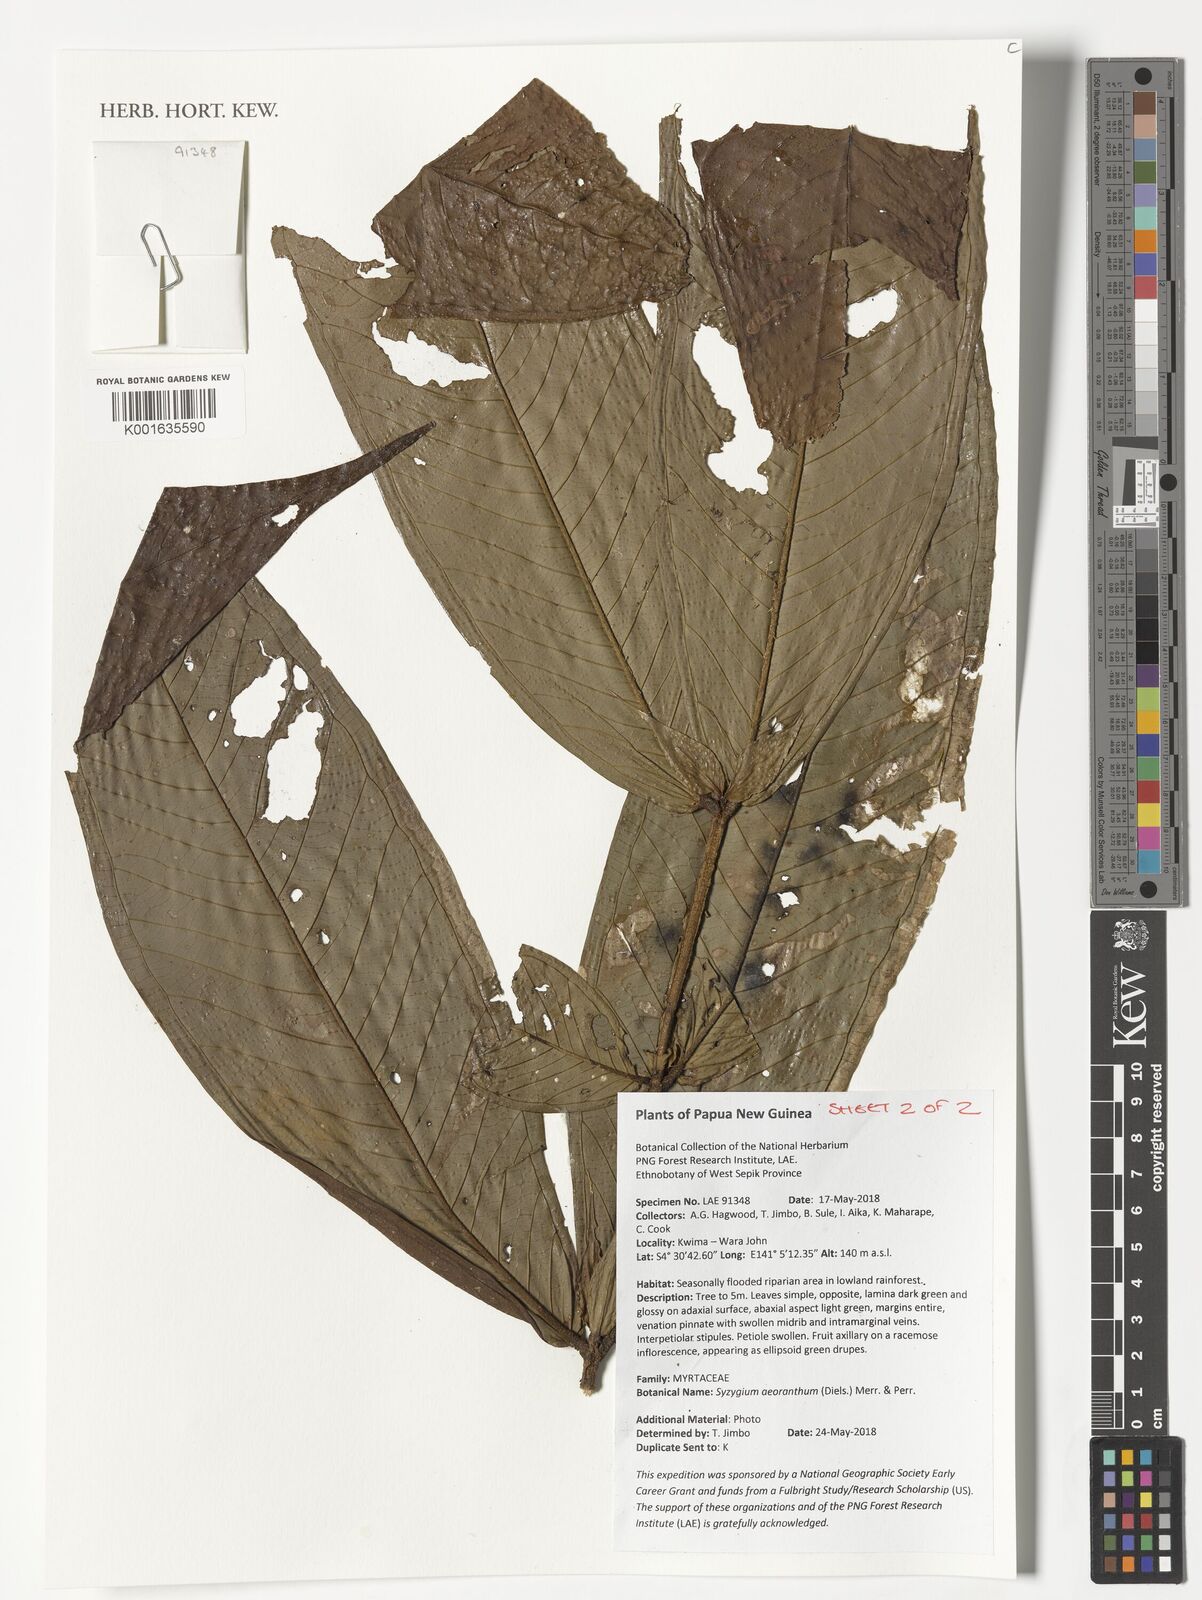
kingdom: Plantae
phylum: Tracheophyta
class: Magnoliopsida
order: Myrtales
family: Myrtaceae
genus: Syzygium
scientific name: Syzygium aeoranthum
